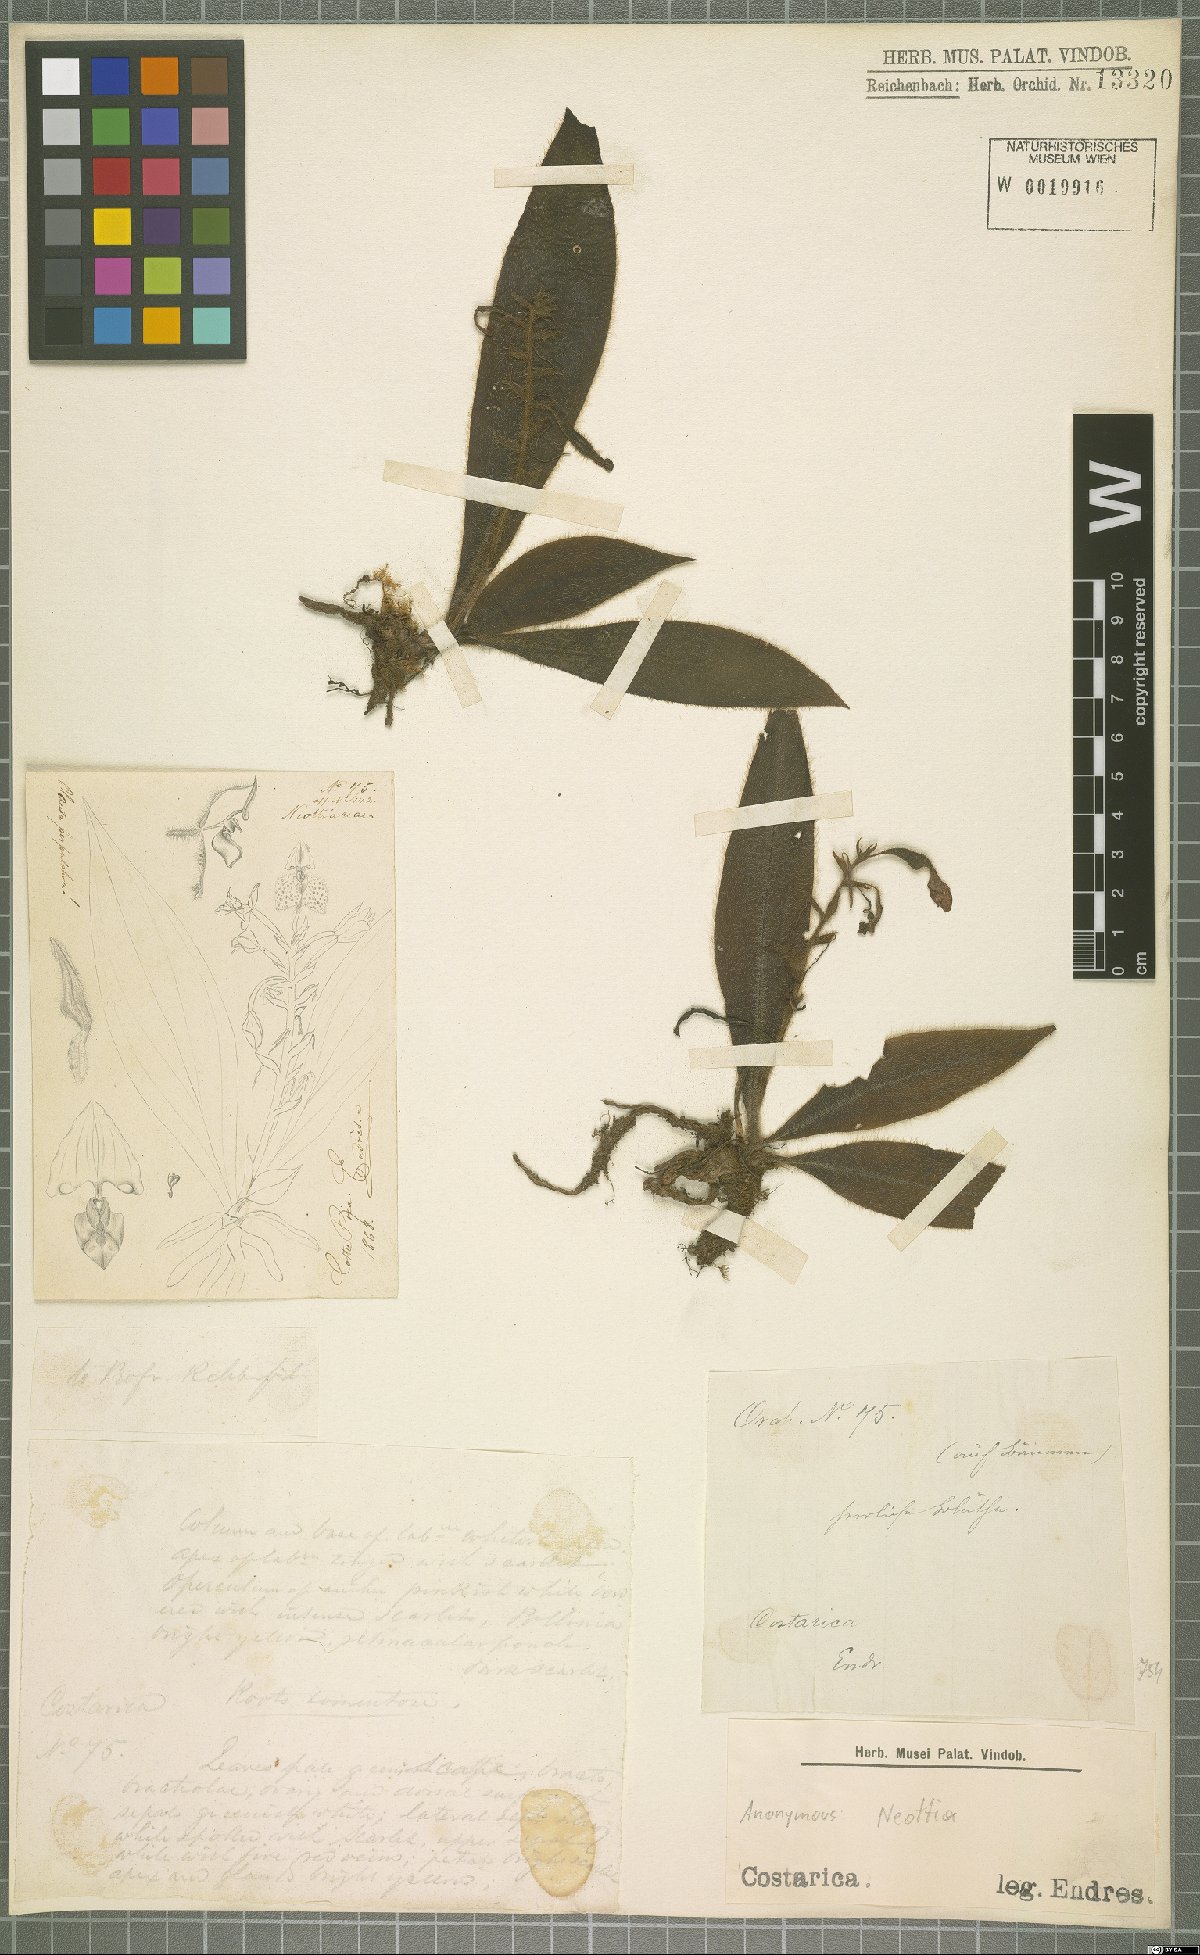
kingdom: Plantae
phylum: Tracheophyta
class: Liliopsida
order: Asparagales
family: Orchidaceae
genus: Neottia
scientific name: Neottia
